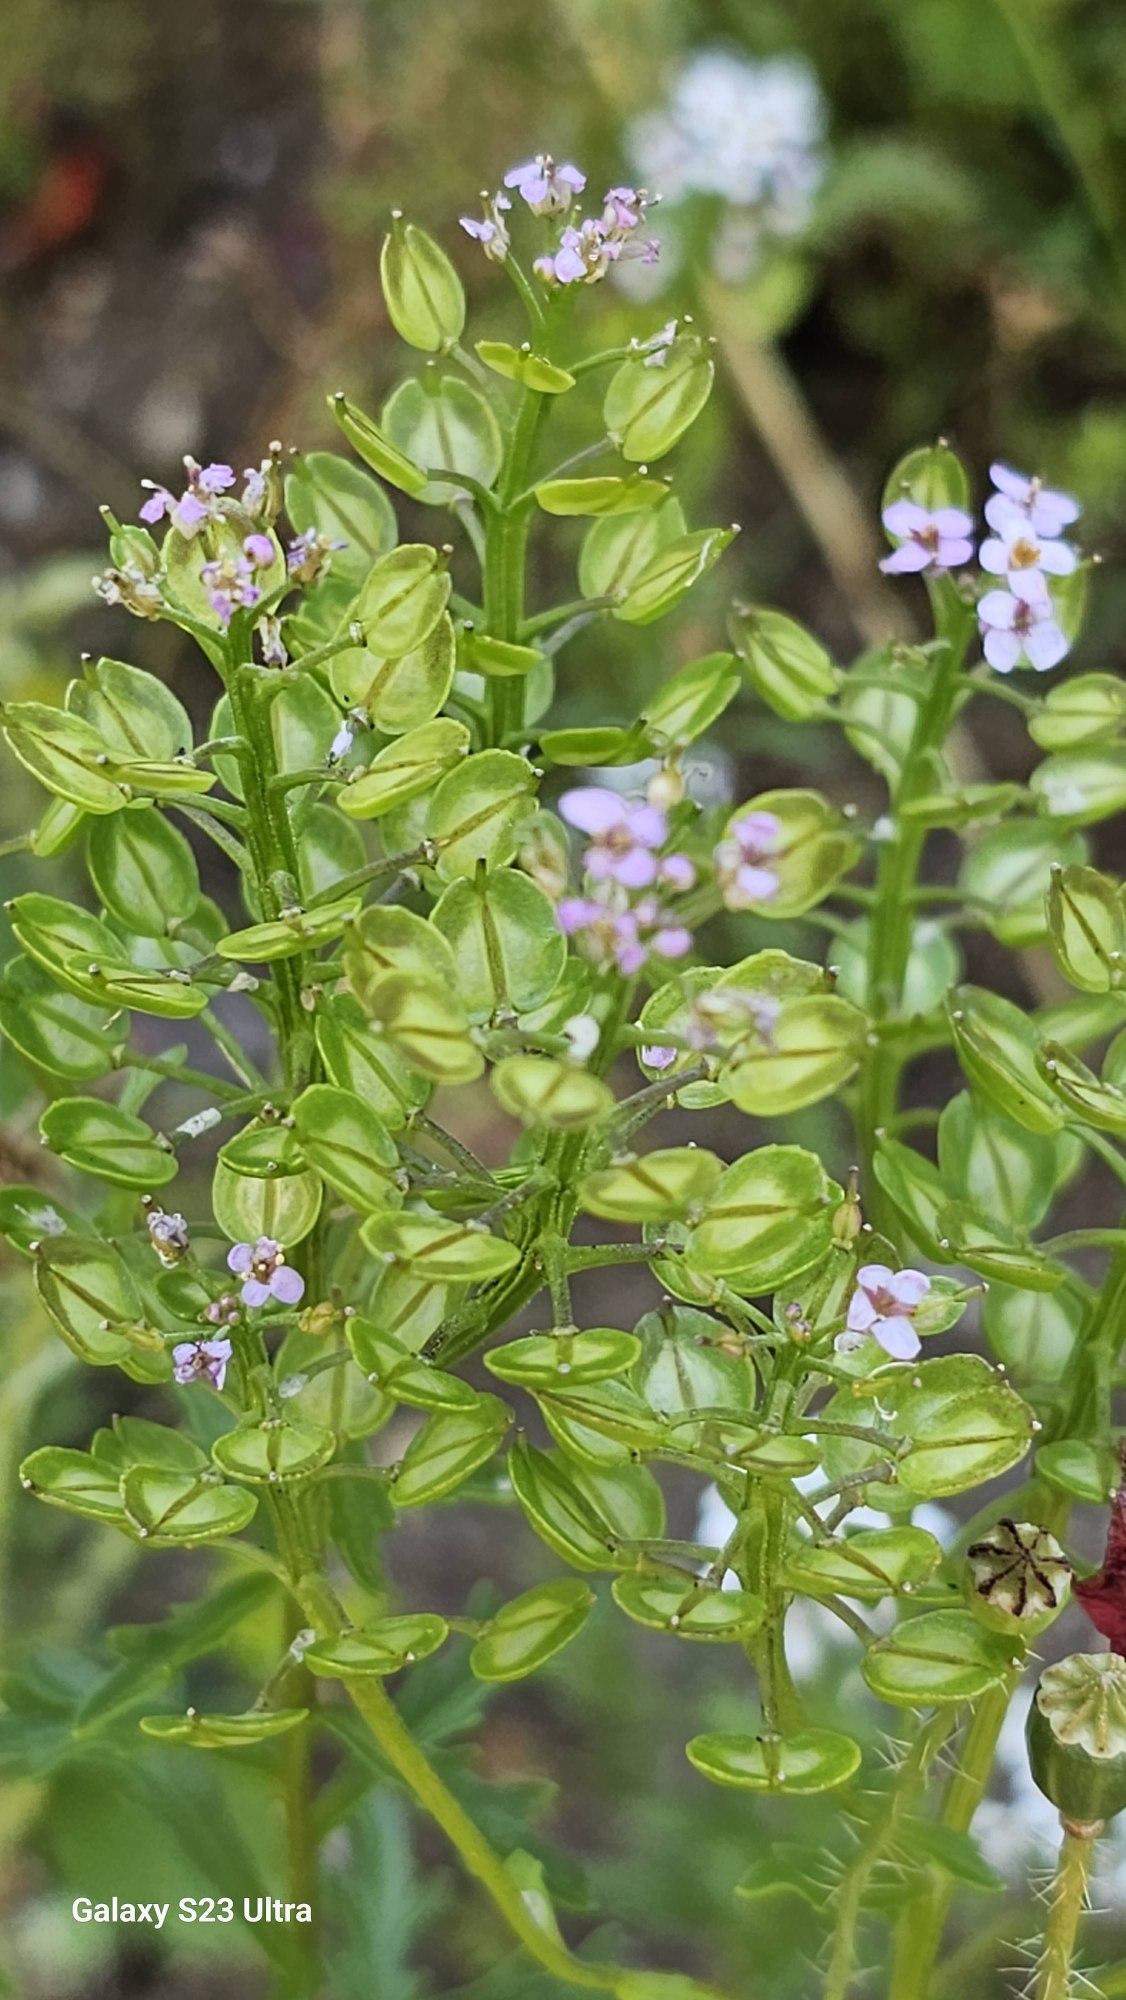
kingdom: Plantae
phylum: Tracheophyta
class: Magnoliopsida
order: Brassicales
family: Brassicaceae
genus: Iberis
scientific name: Iberis amara
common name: Hvid sløjfeblomst
